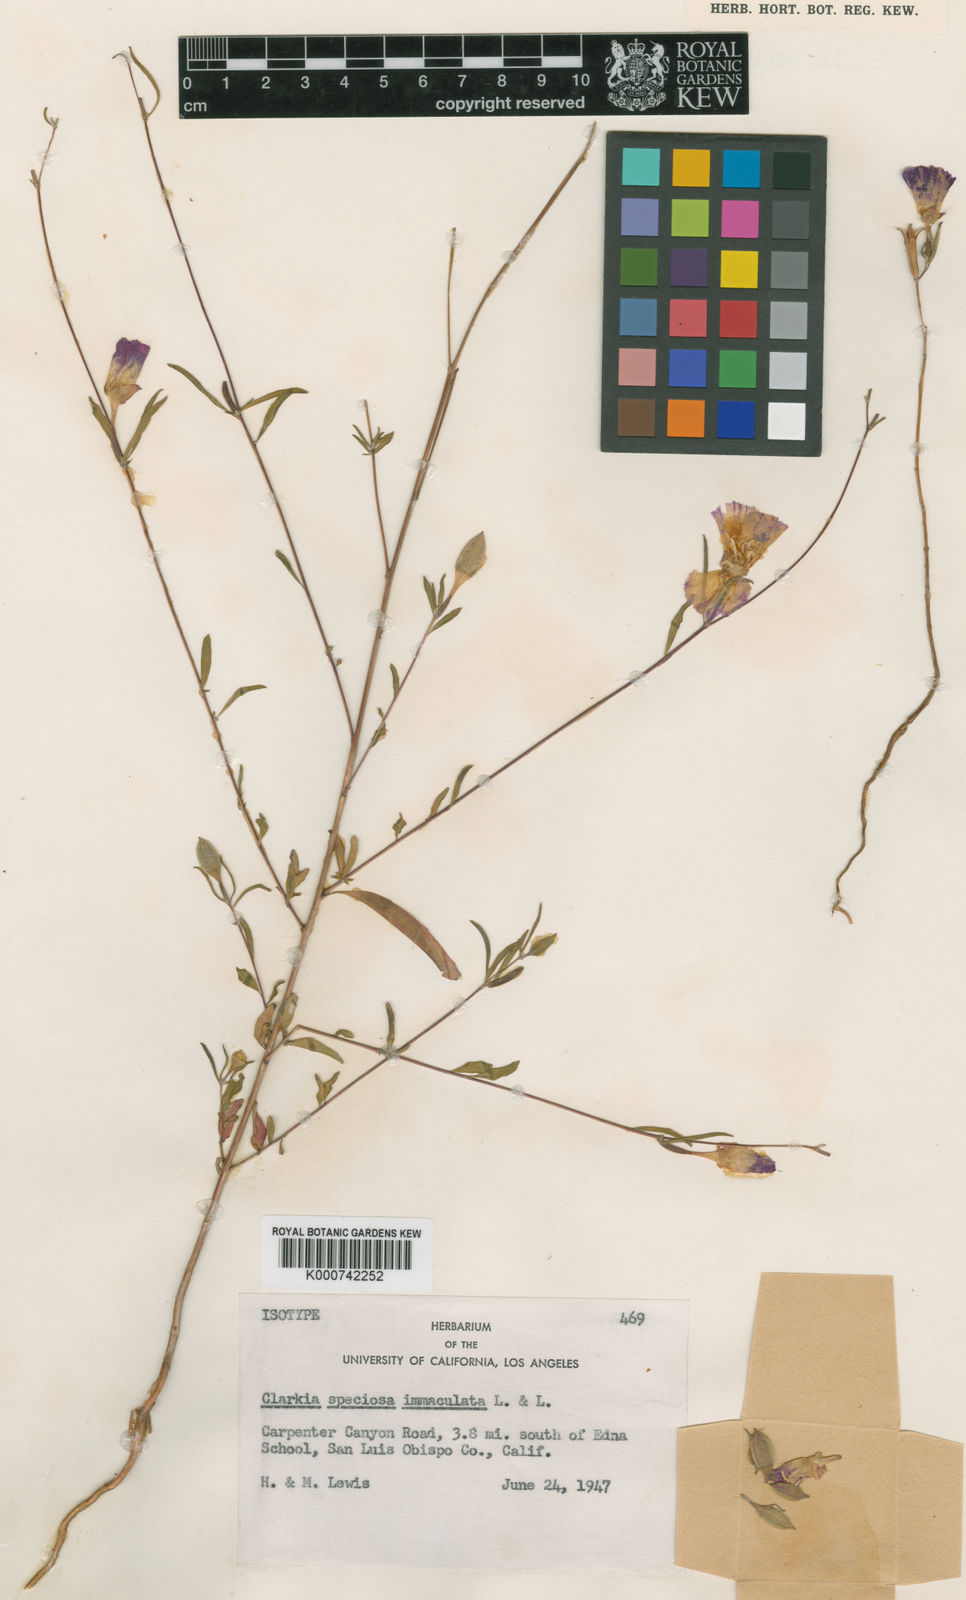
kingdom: Plantae
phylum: Tracheophyta
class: Magnoliopsida
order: Myrtales
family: Onagraceae
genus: Clarkia
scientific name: Clarkia speciosa
